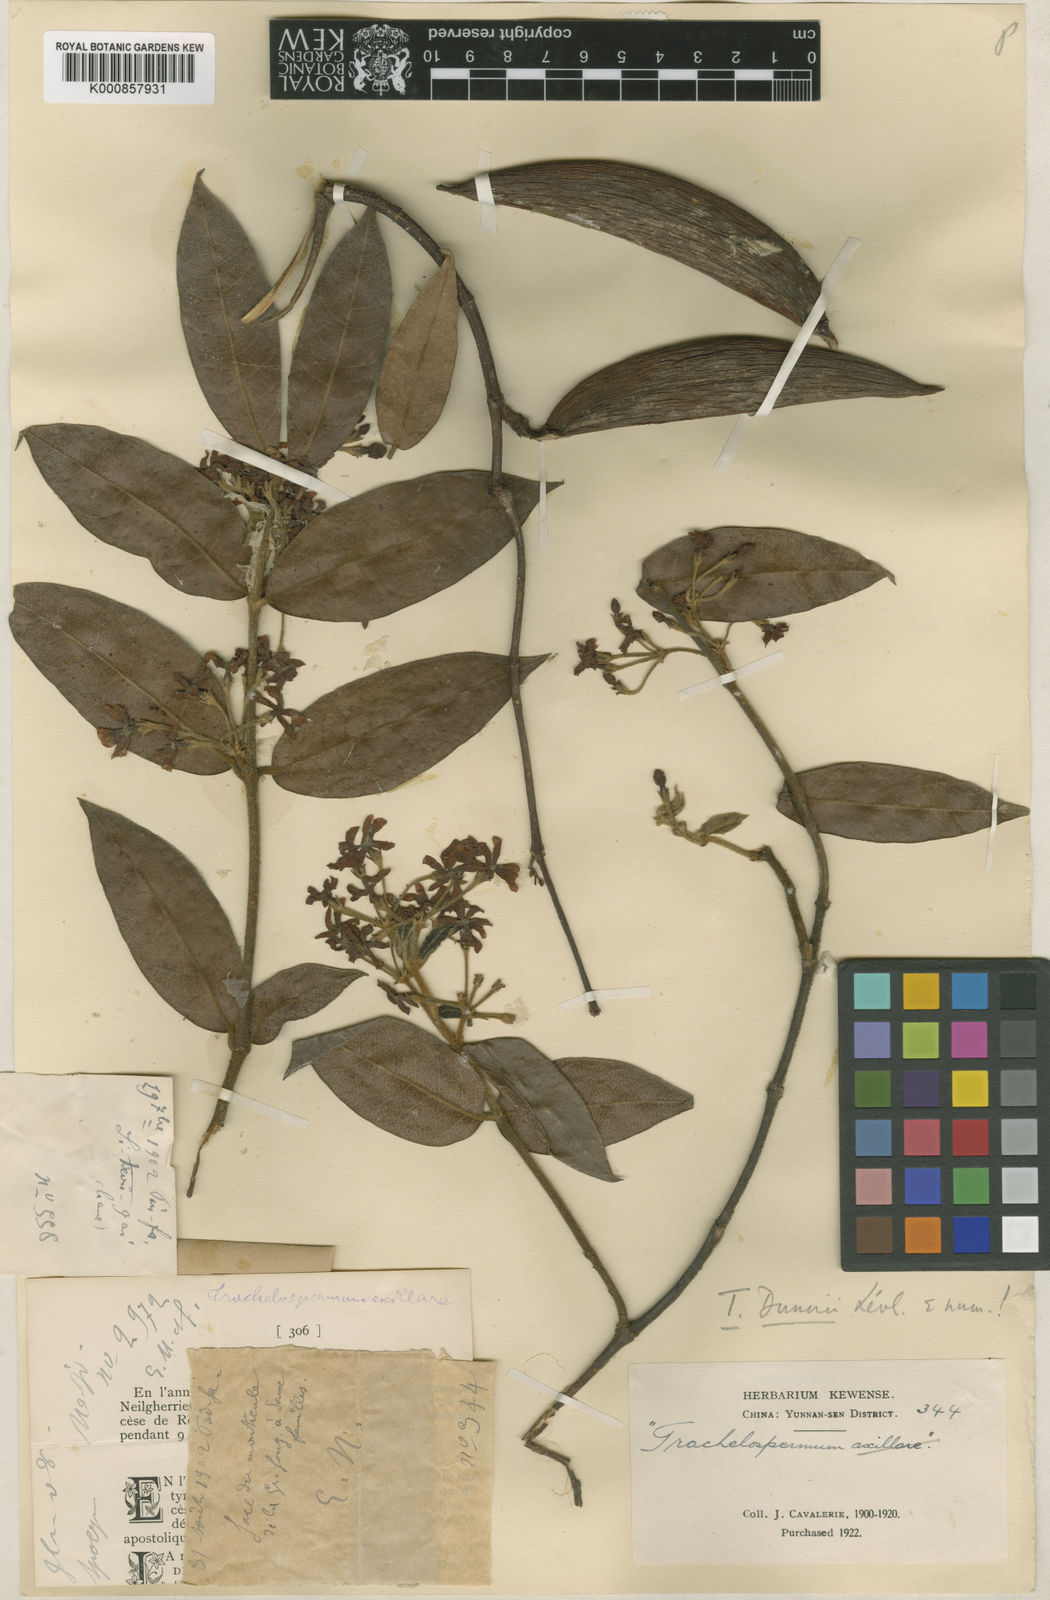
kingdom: Plantae
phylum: Tracheophyta
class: Magnoliopsida
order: Gentianales
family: Apocynaceae
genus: Trachelospermum
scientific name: Trachelospermum
